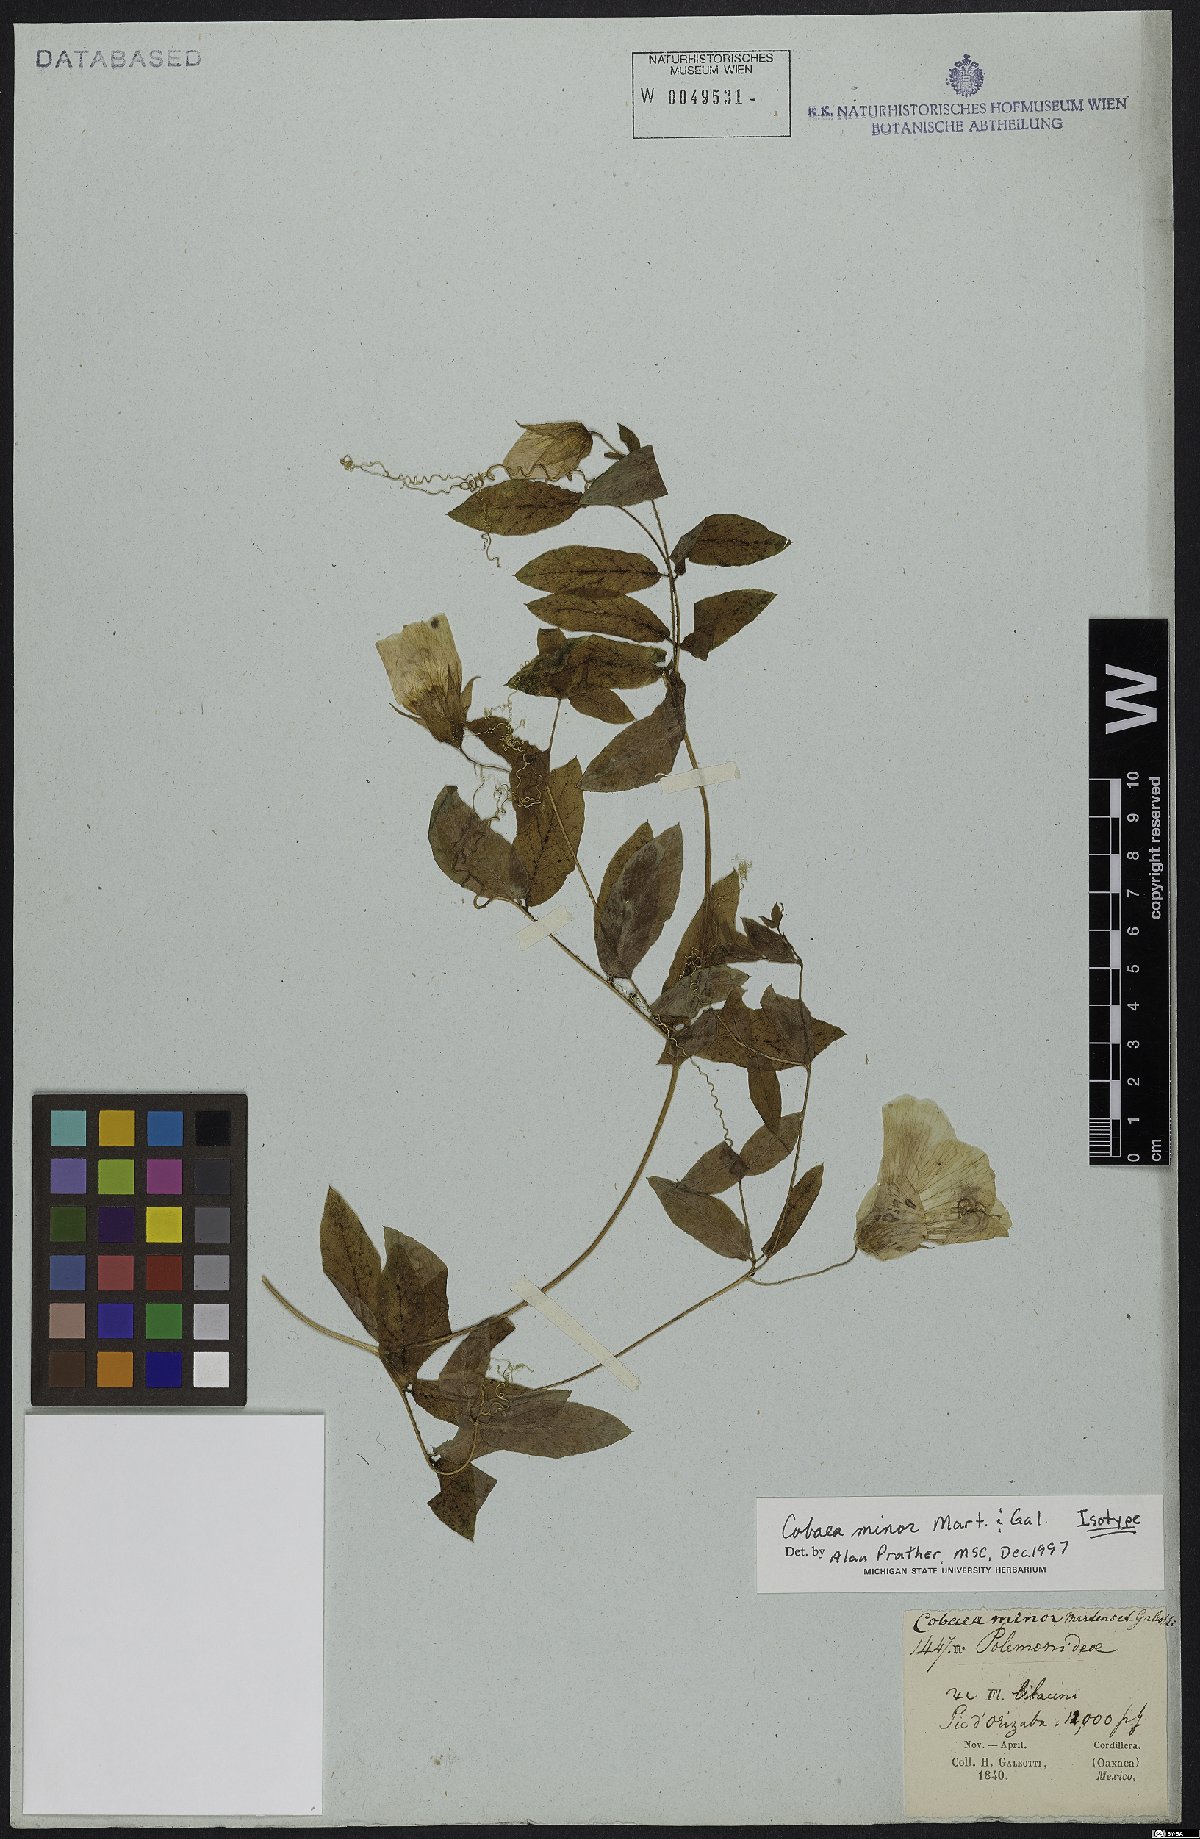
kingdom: Plantae
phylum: Tracheophyta
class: Magnoliopsida
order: Ericales
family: Polemoniaceae
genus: Cobaea
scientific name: Cobaea minor
